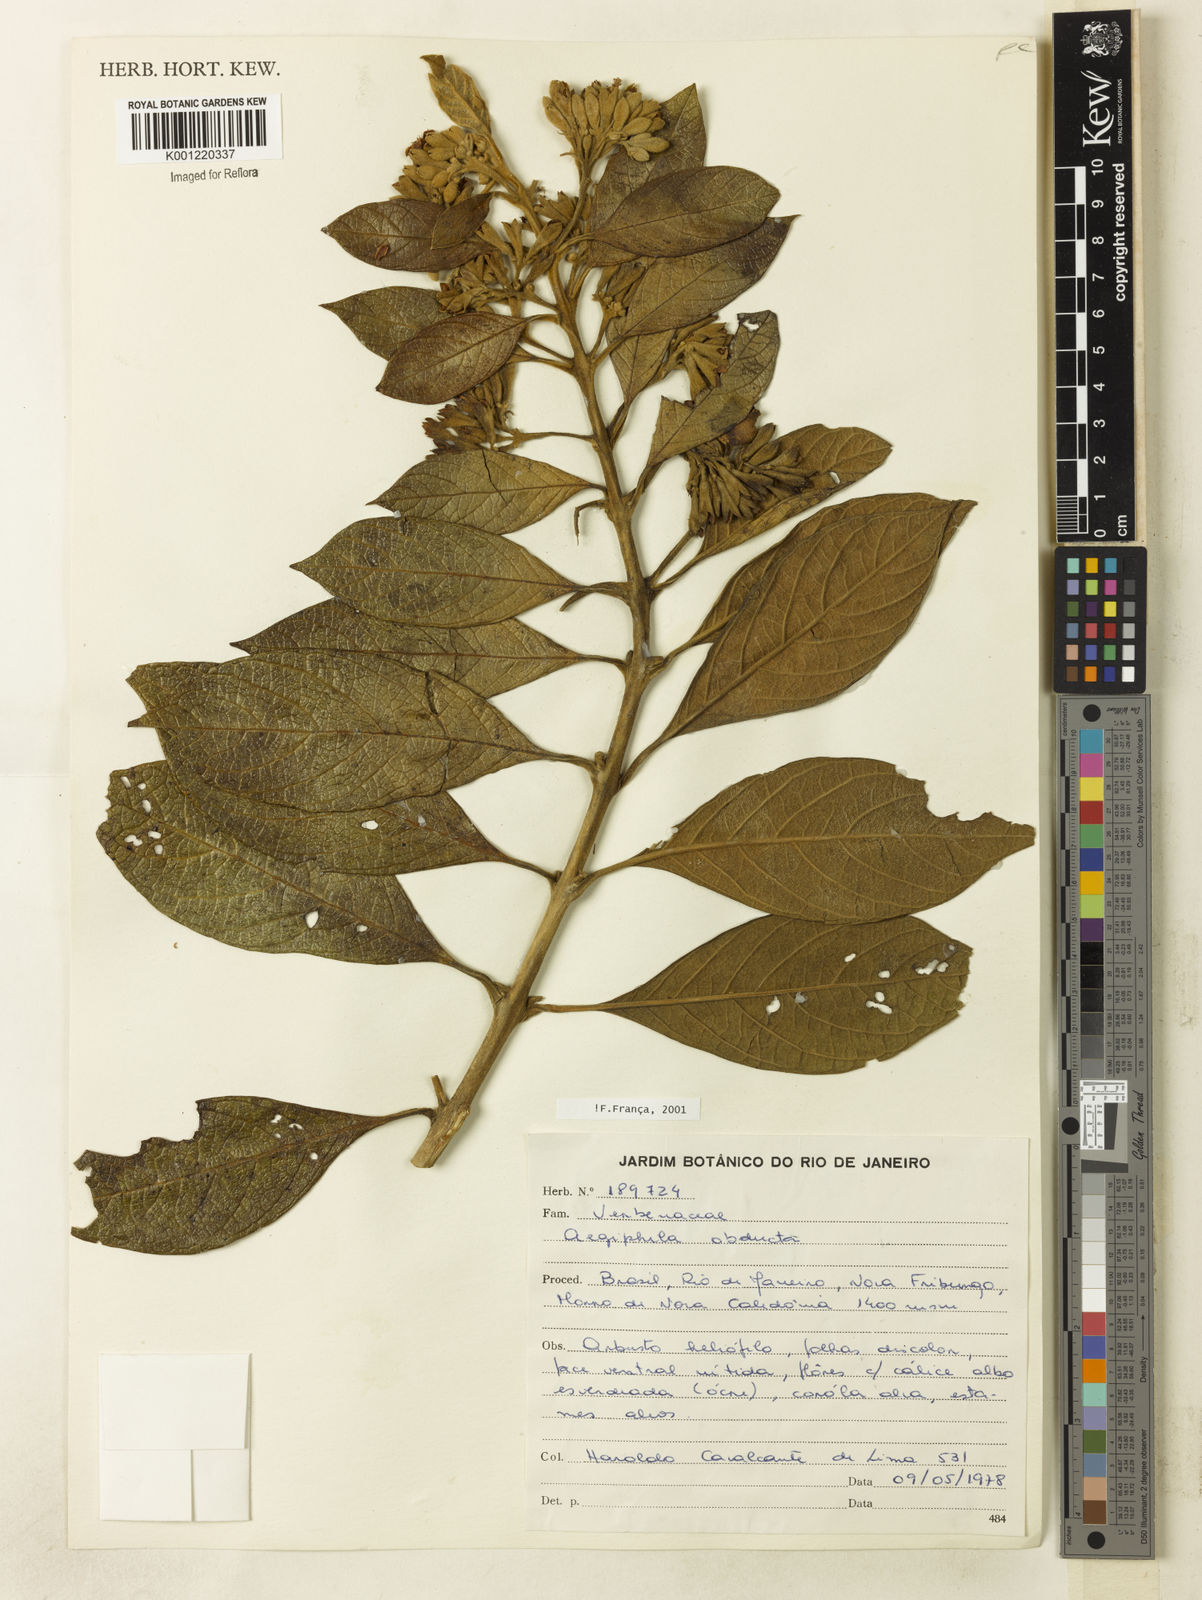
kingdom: Plantae
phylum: Tracheophyta
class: Magnoliopsida
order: Lamiales
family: Lamiaceae
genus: Aegiphila
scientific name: Aegiphila obducta
